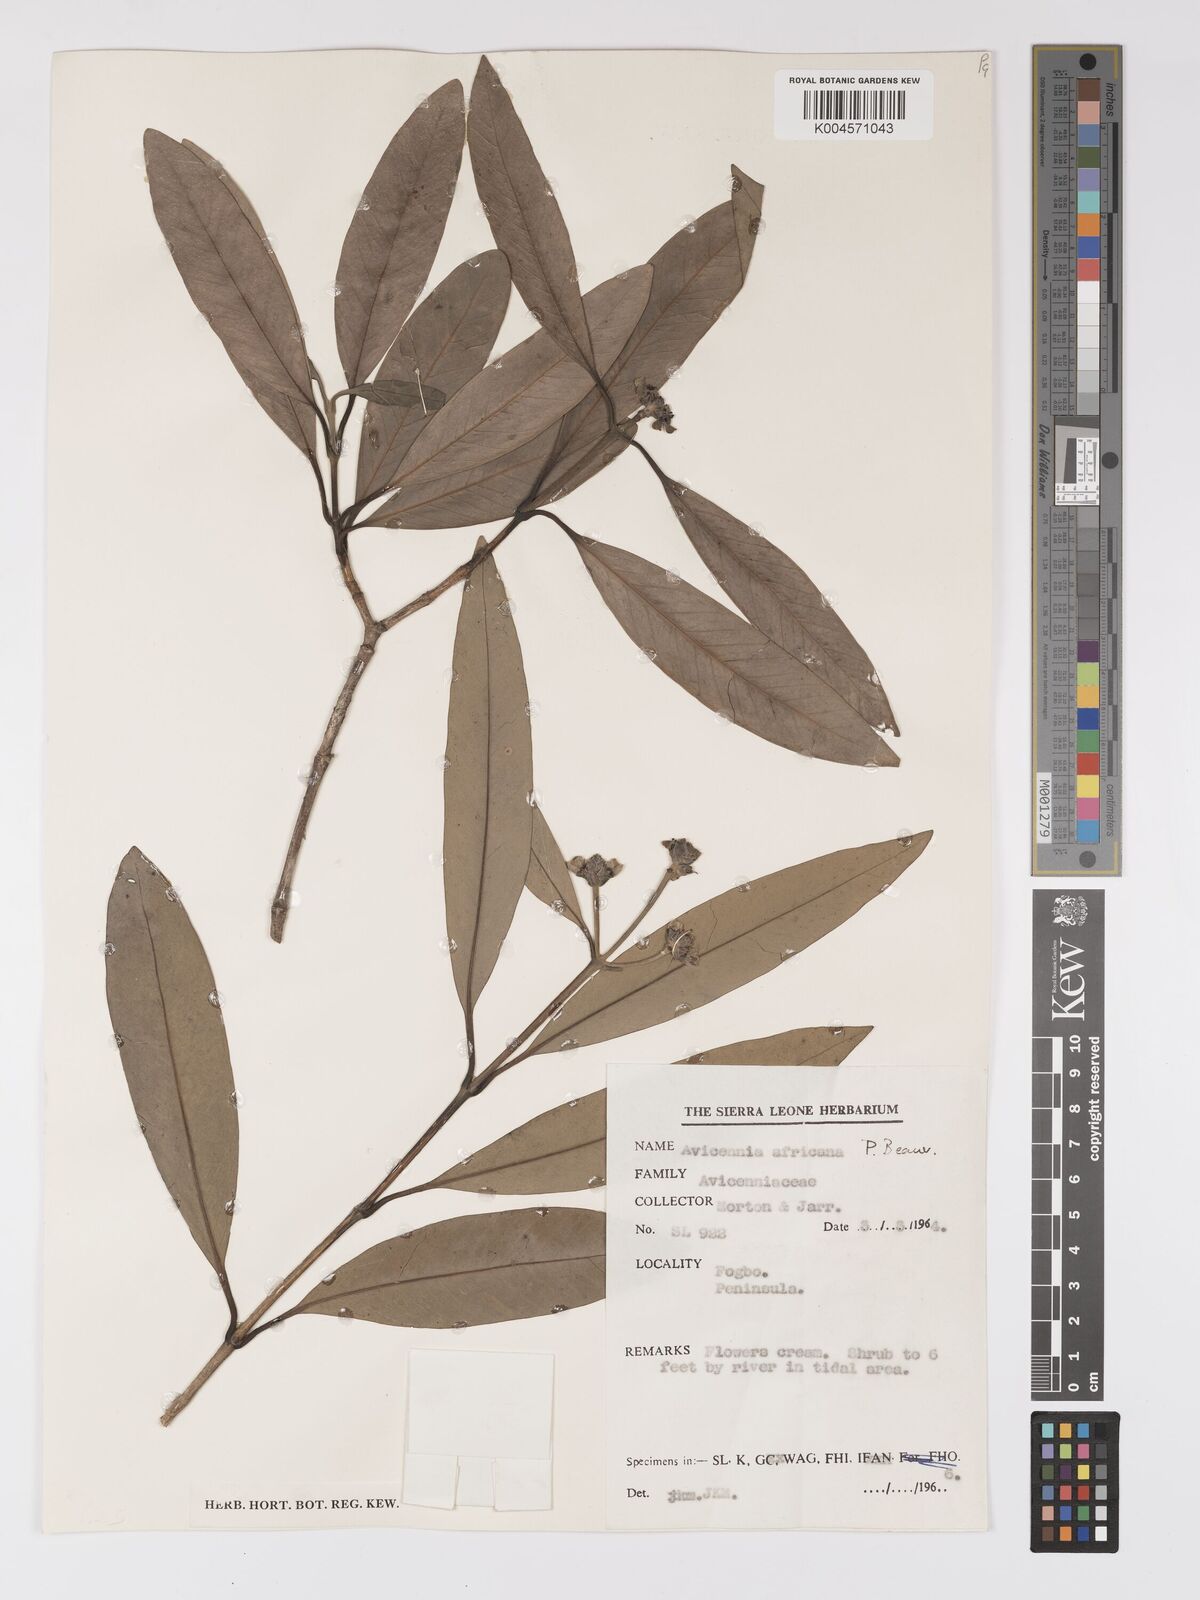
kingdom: Plantae
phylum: Tracheophyta
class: Magnoliopsida
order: Lamiales
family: Acanthaceae
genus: Avicennia
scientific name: Avicennia germinans
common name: Black mangrove
